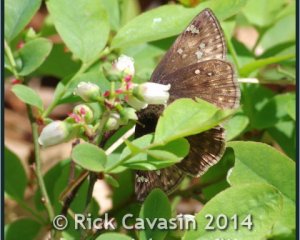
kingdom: Animalia
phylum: Arthropoda
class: Insecta
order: Lepidoptera
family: Hesperiidae
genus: Gesta
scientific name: Gesta
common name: Juvenal's Duskywing
